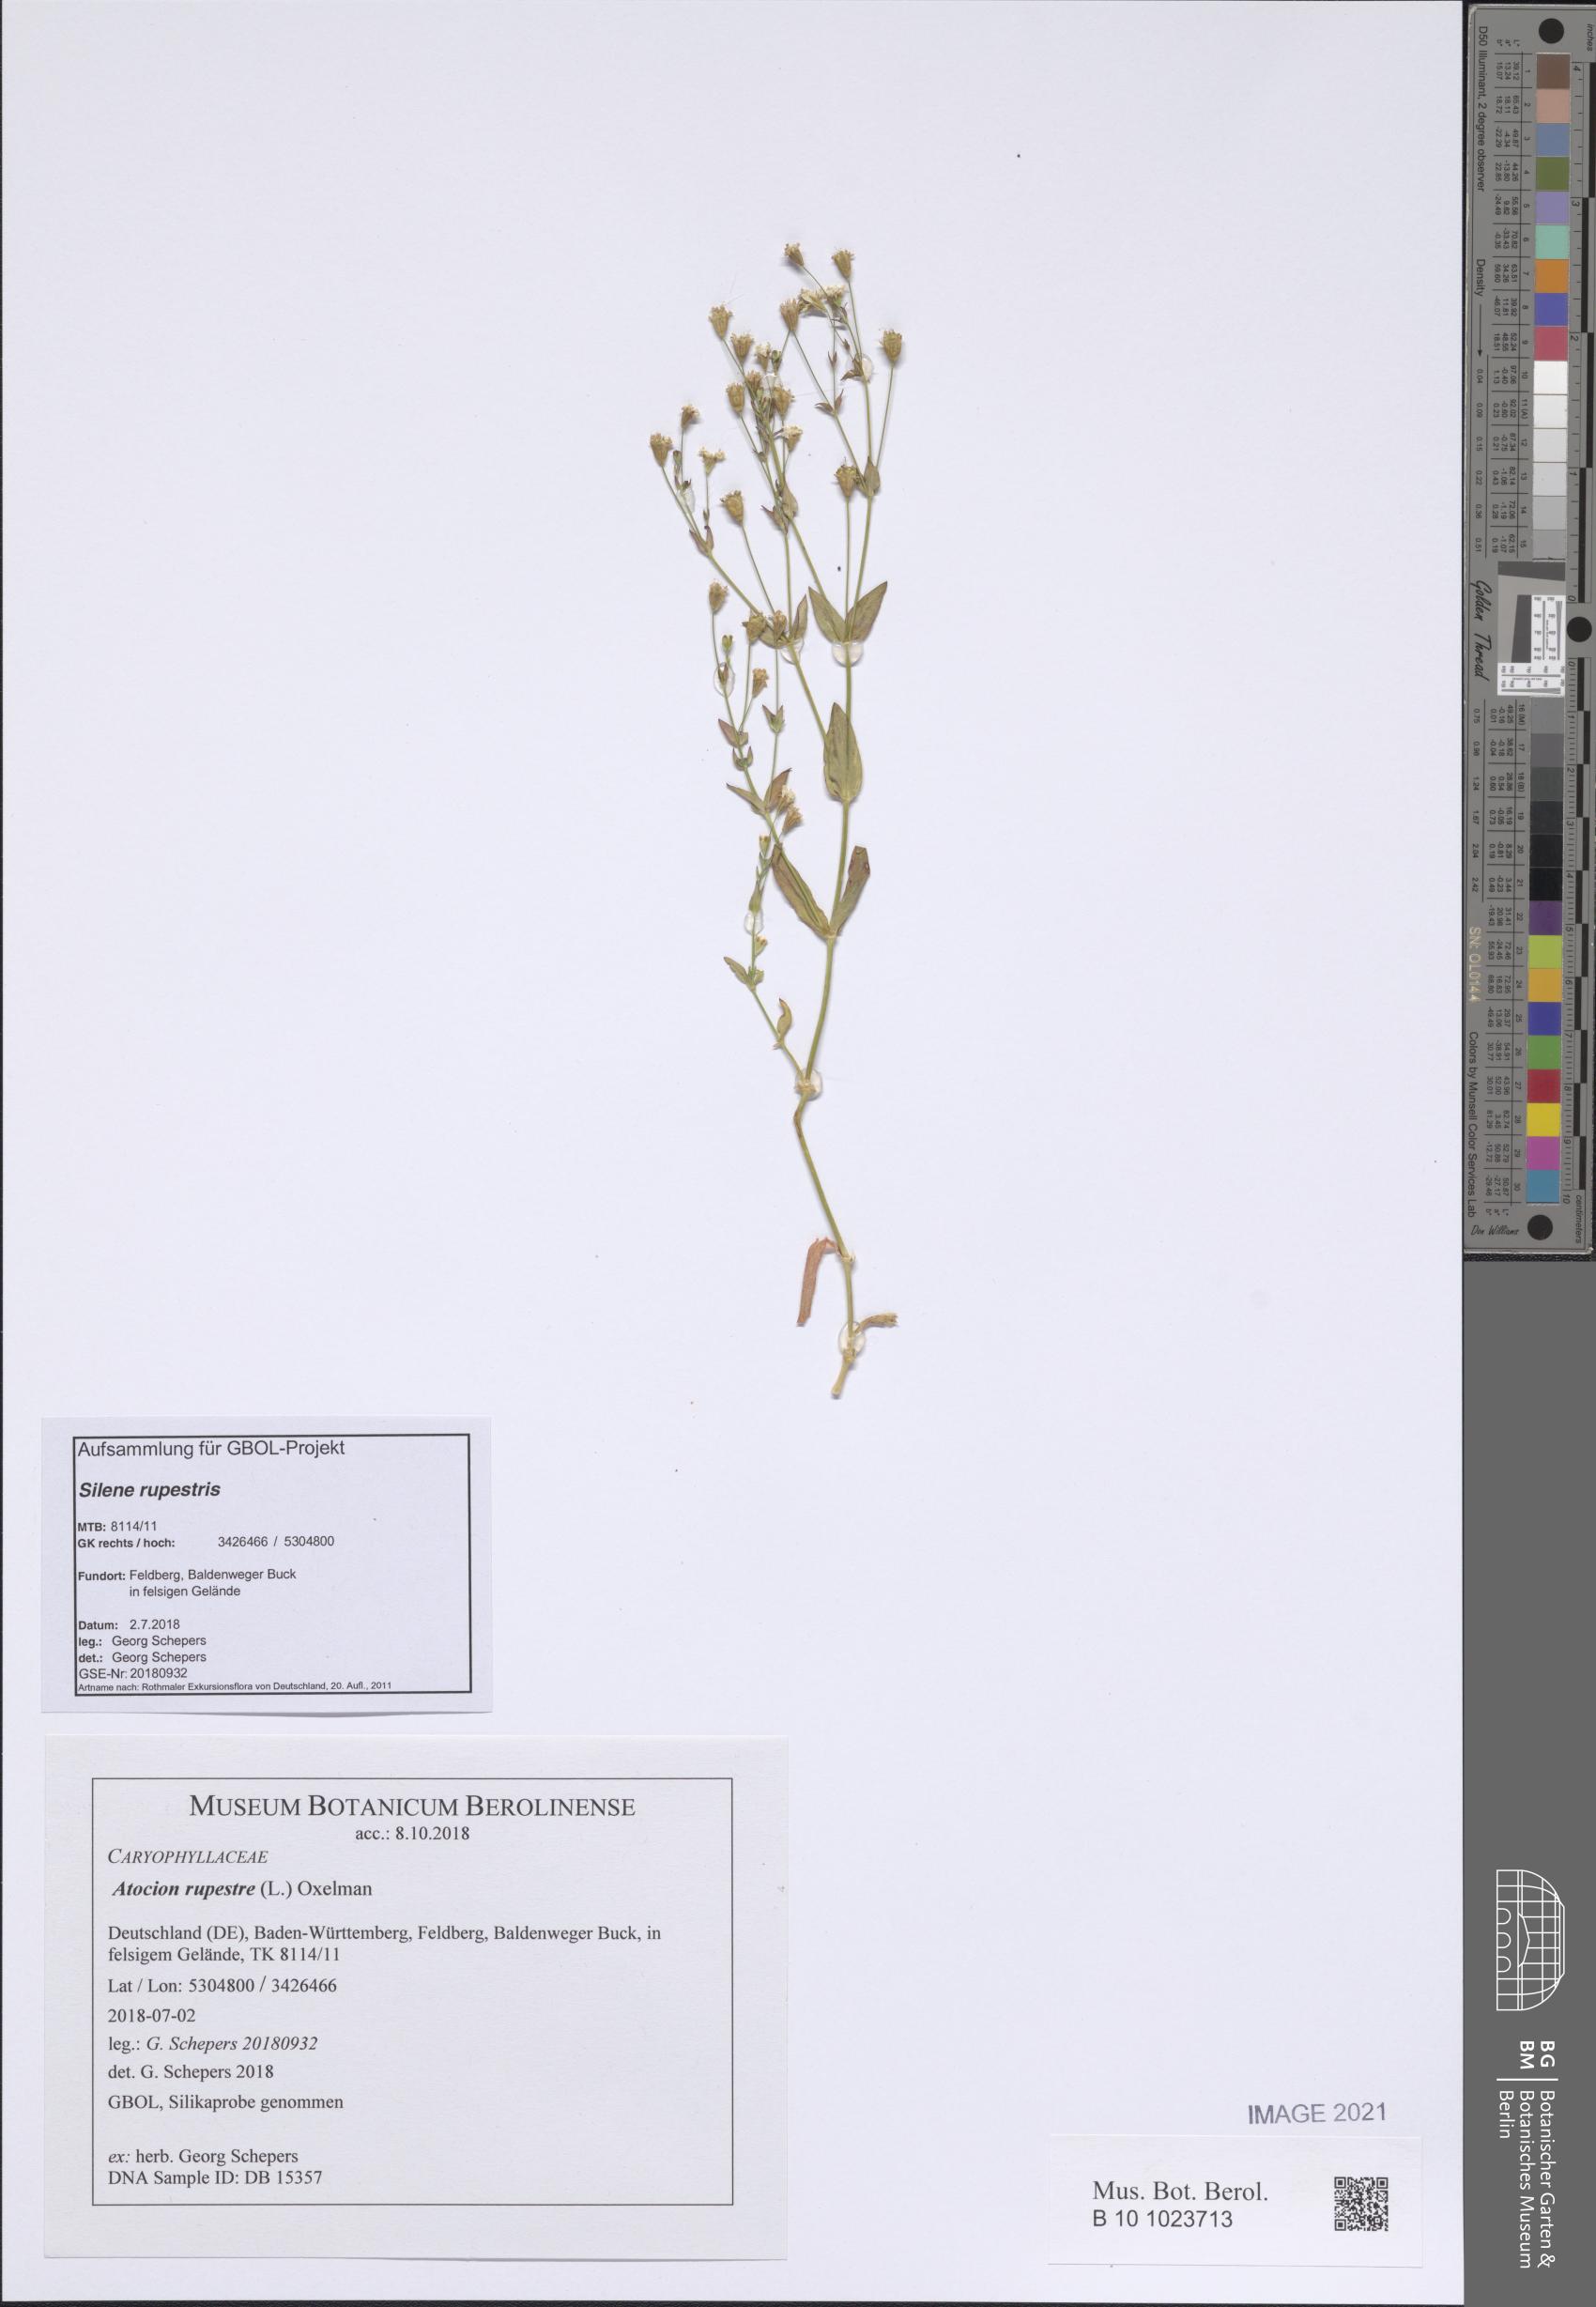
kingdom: Plantae
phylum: Tracheophyta
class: Magnoliopsida
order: Caryophyllales
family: Caryophyllaceae
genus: Atocion
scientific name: Atocion rupestre
